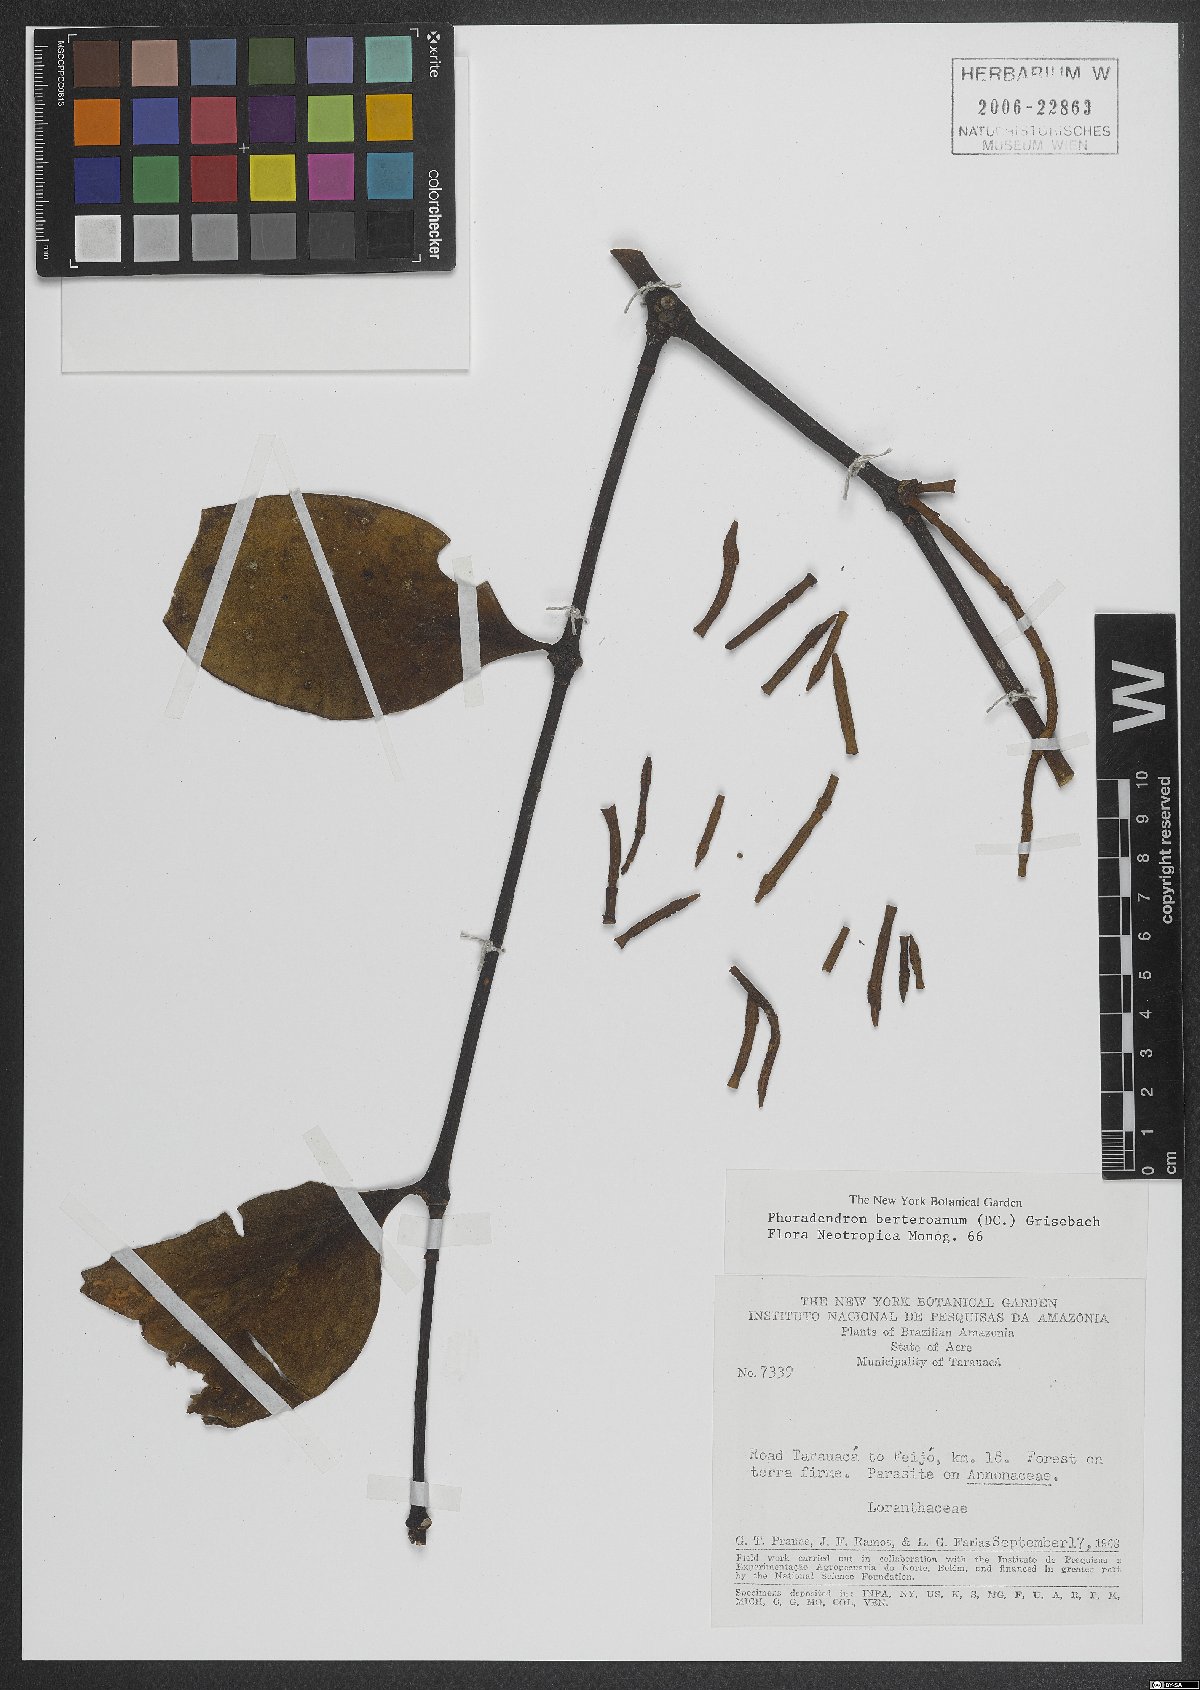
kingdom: Plantae
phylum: Tracheophyta
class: Magnoliopsida
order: Santalales
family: Viscaceae
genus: Phoradendron
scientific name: Phoradendron berteroanum
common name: Bertero's mistletoe
